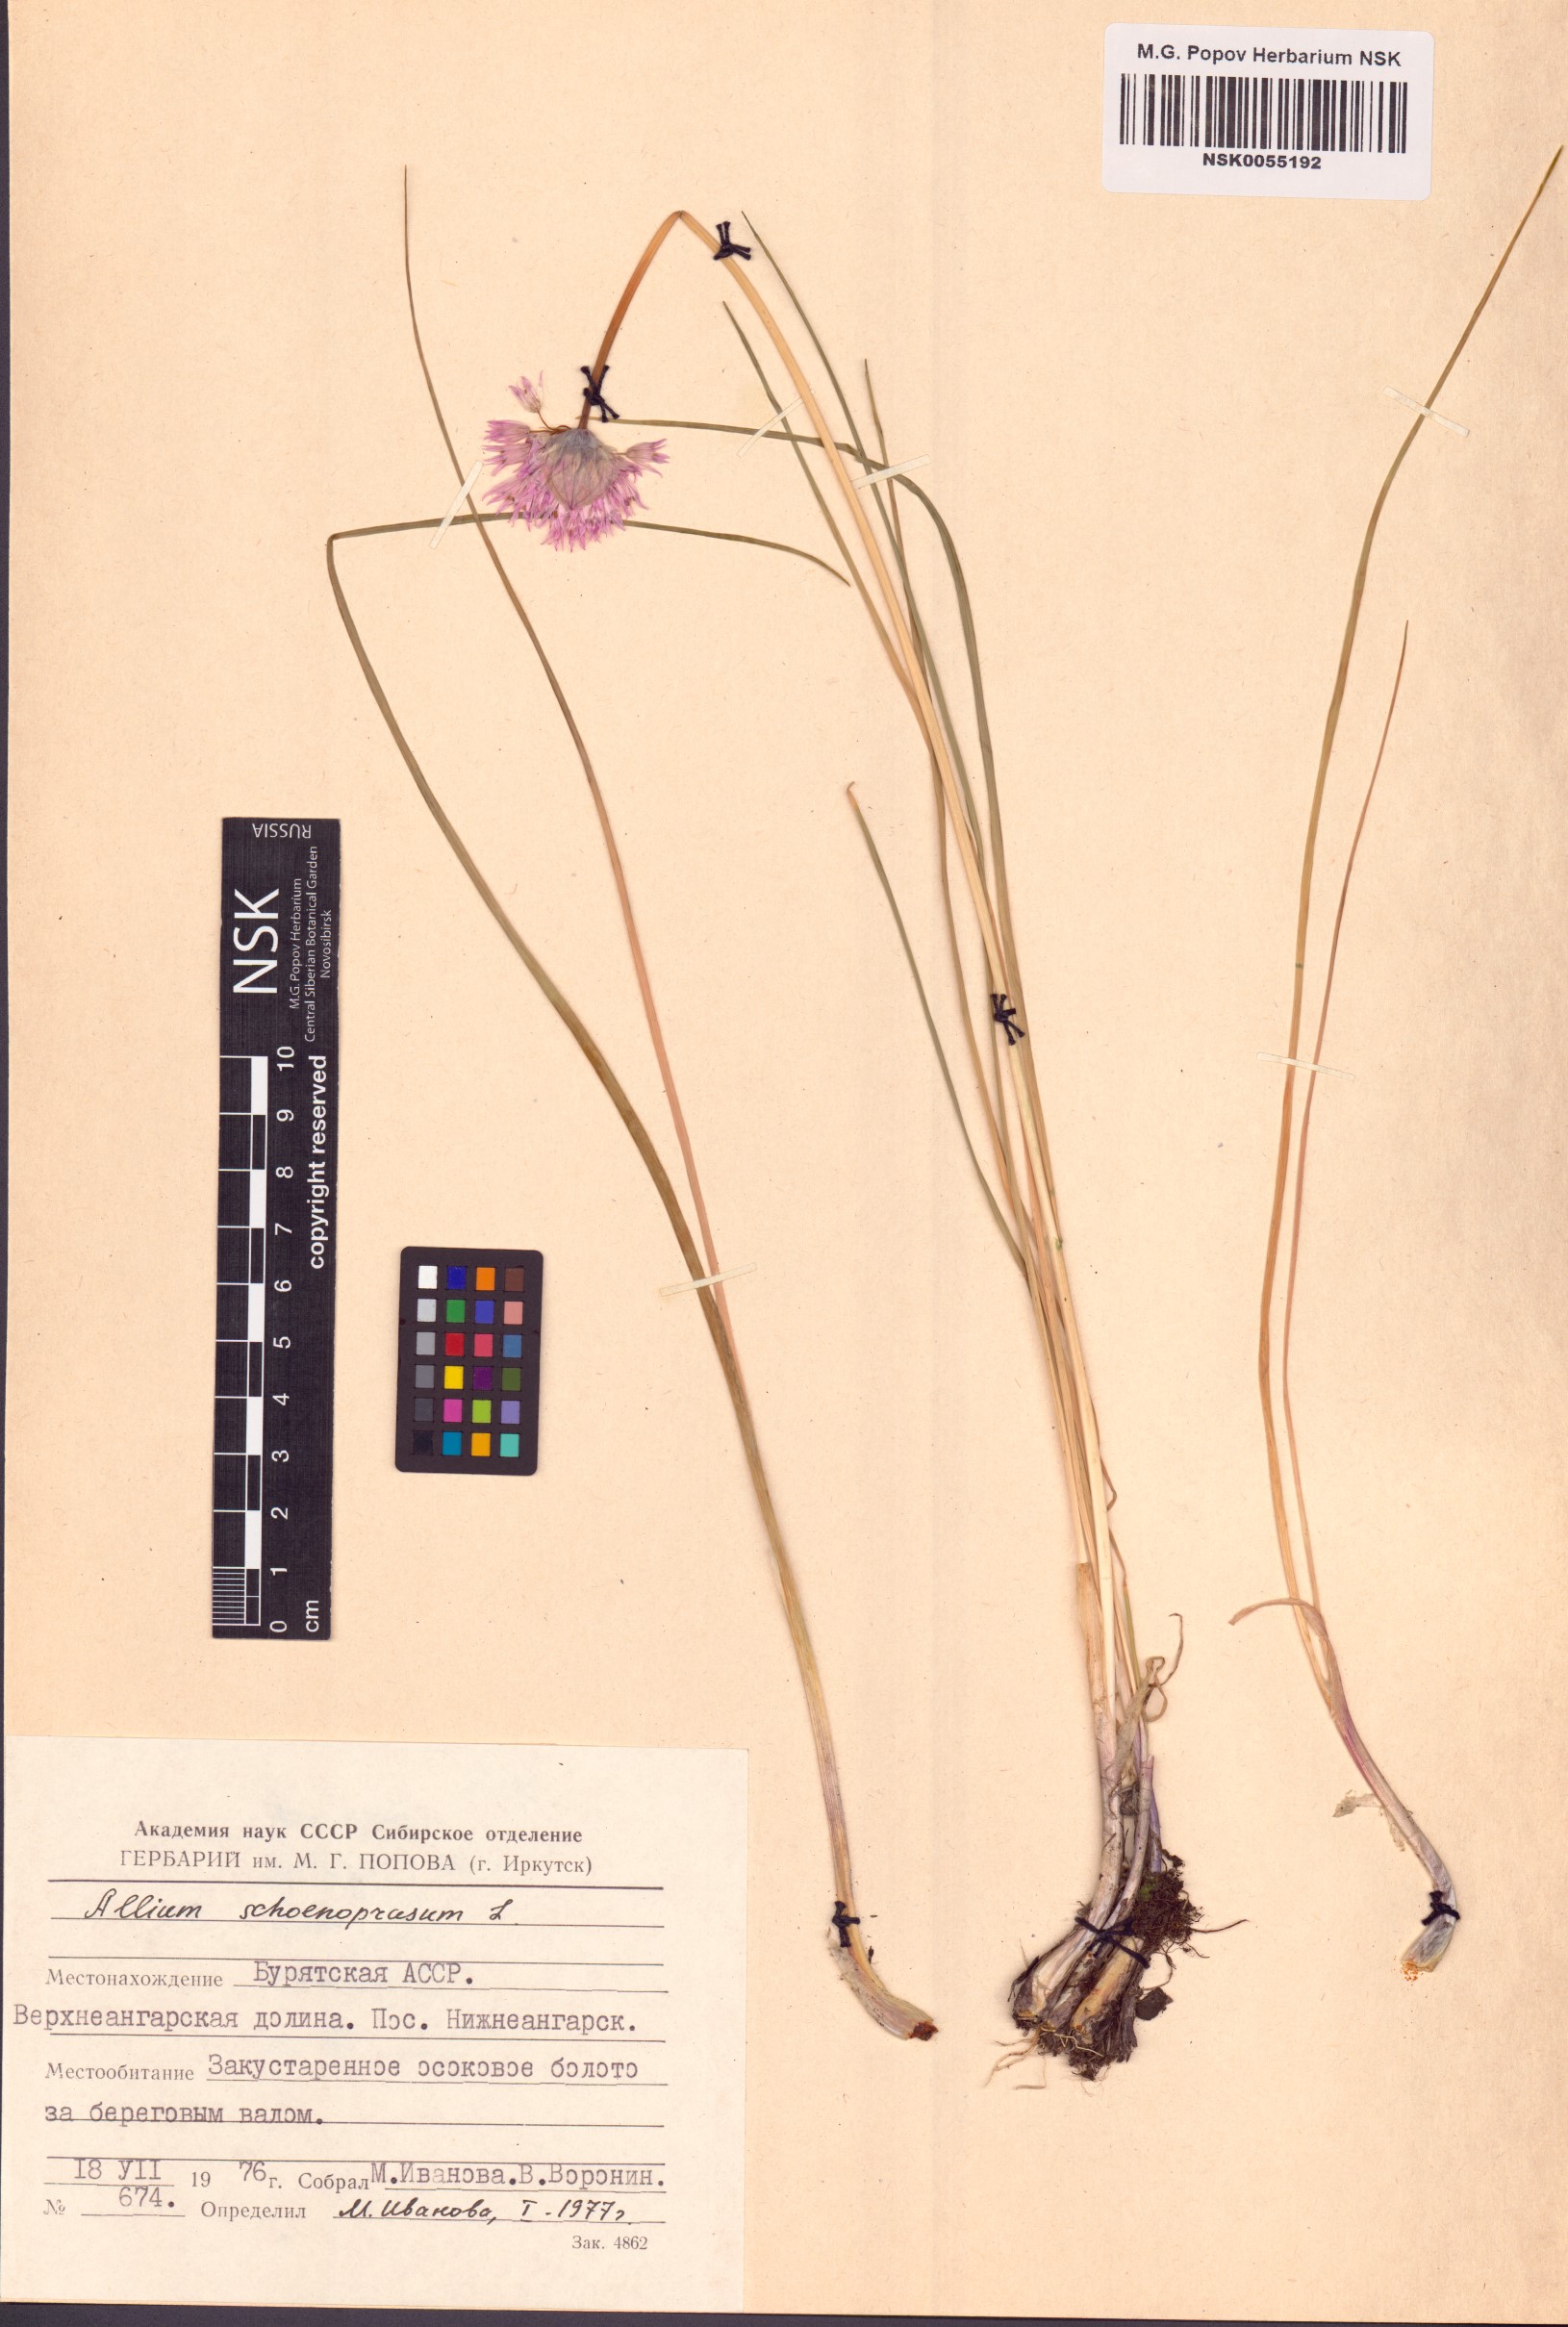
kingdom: Plantae
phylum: Tracheophyta
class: Liliopsida
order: Asparagales
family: Amaryllidaceae
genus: Allium
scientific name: Allium schoenoprasum
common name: Chives
